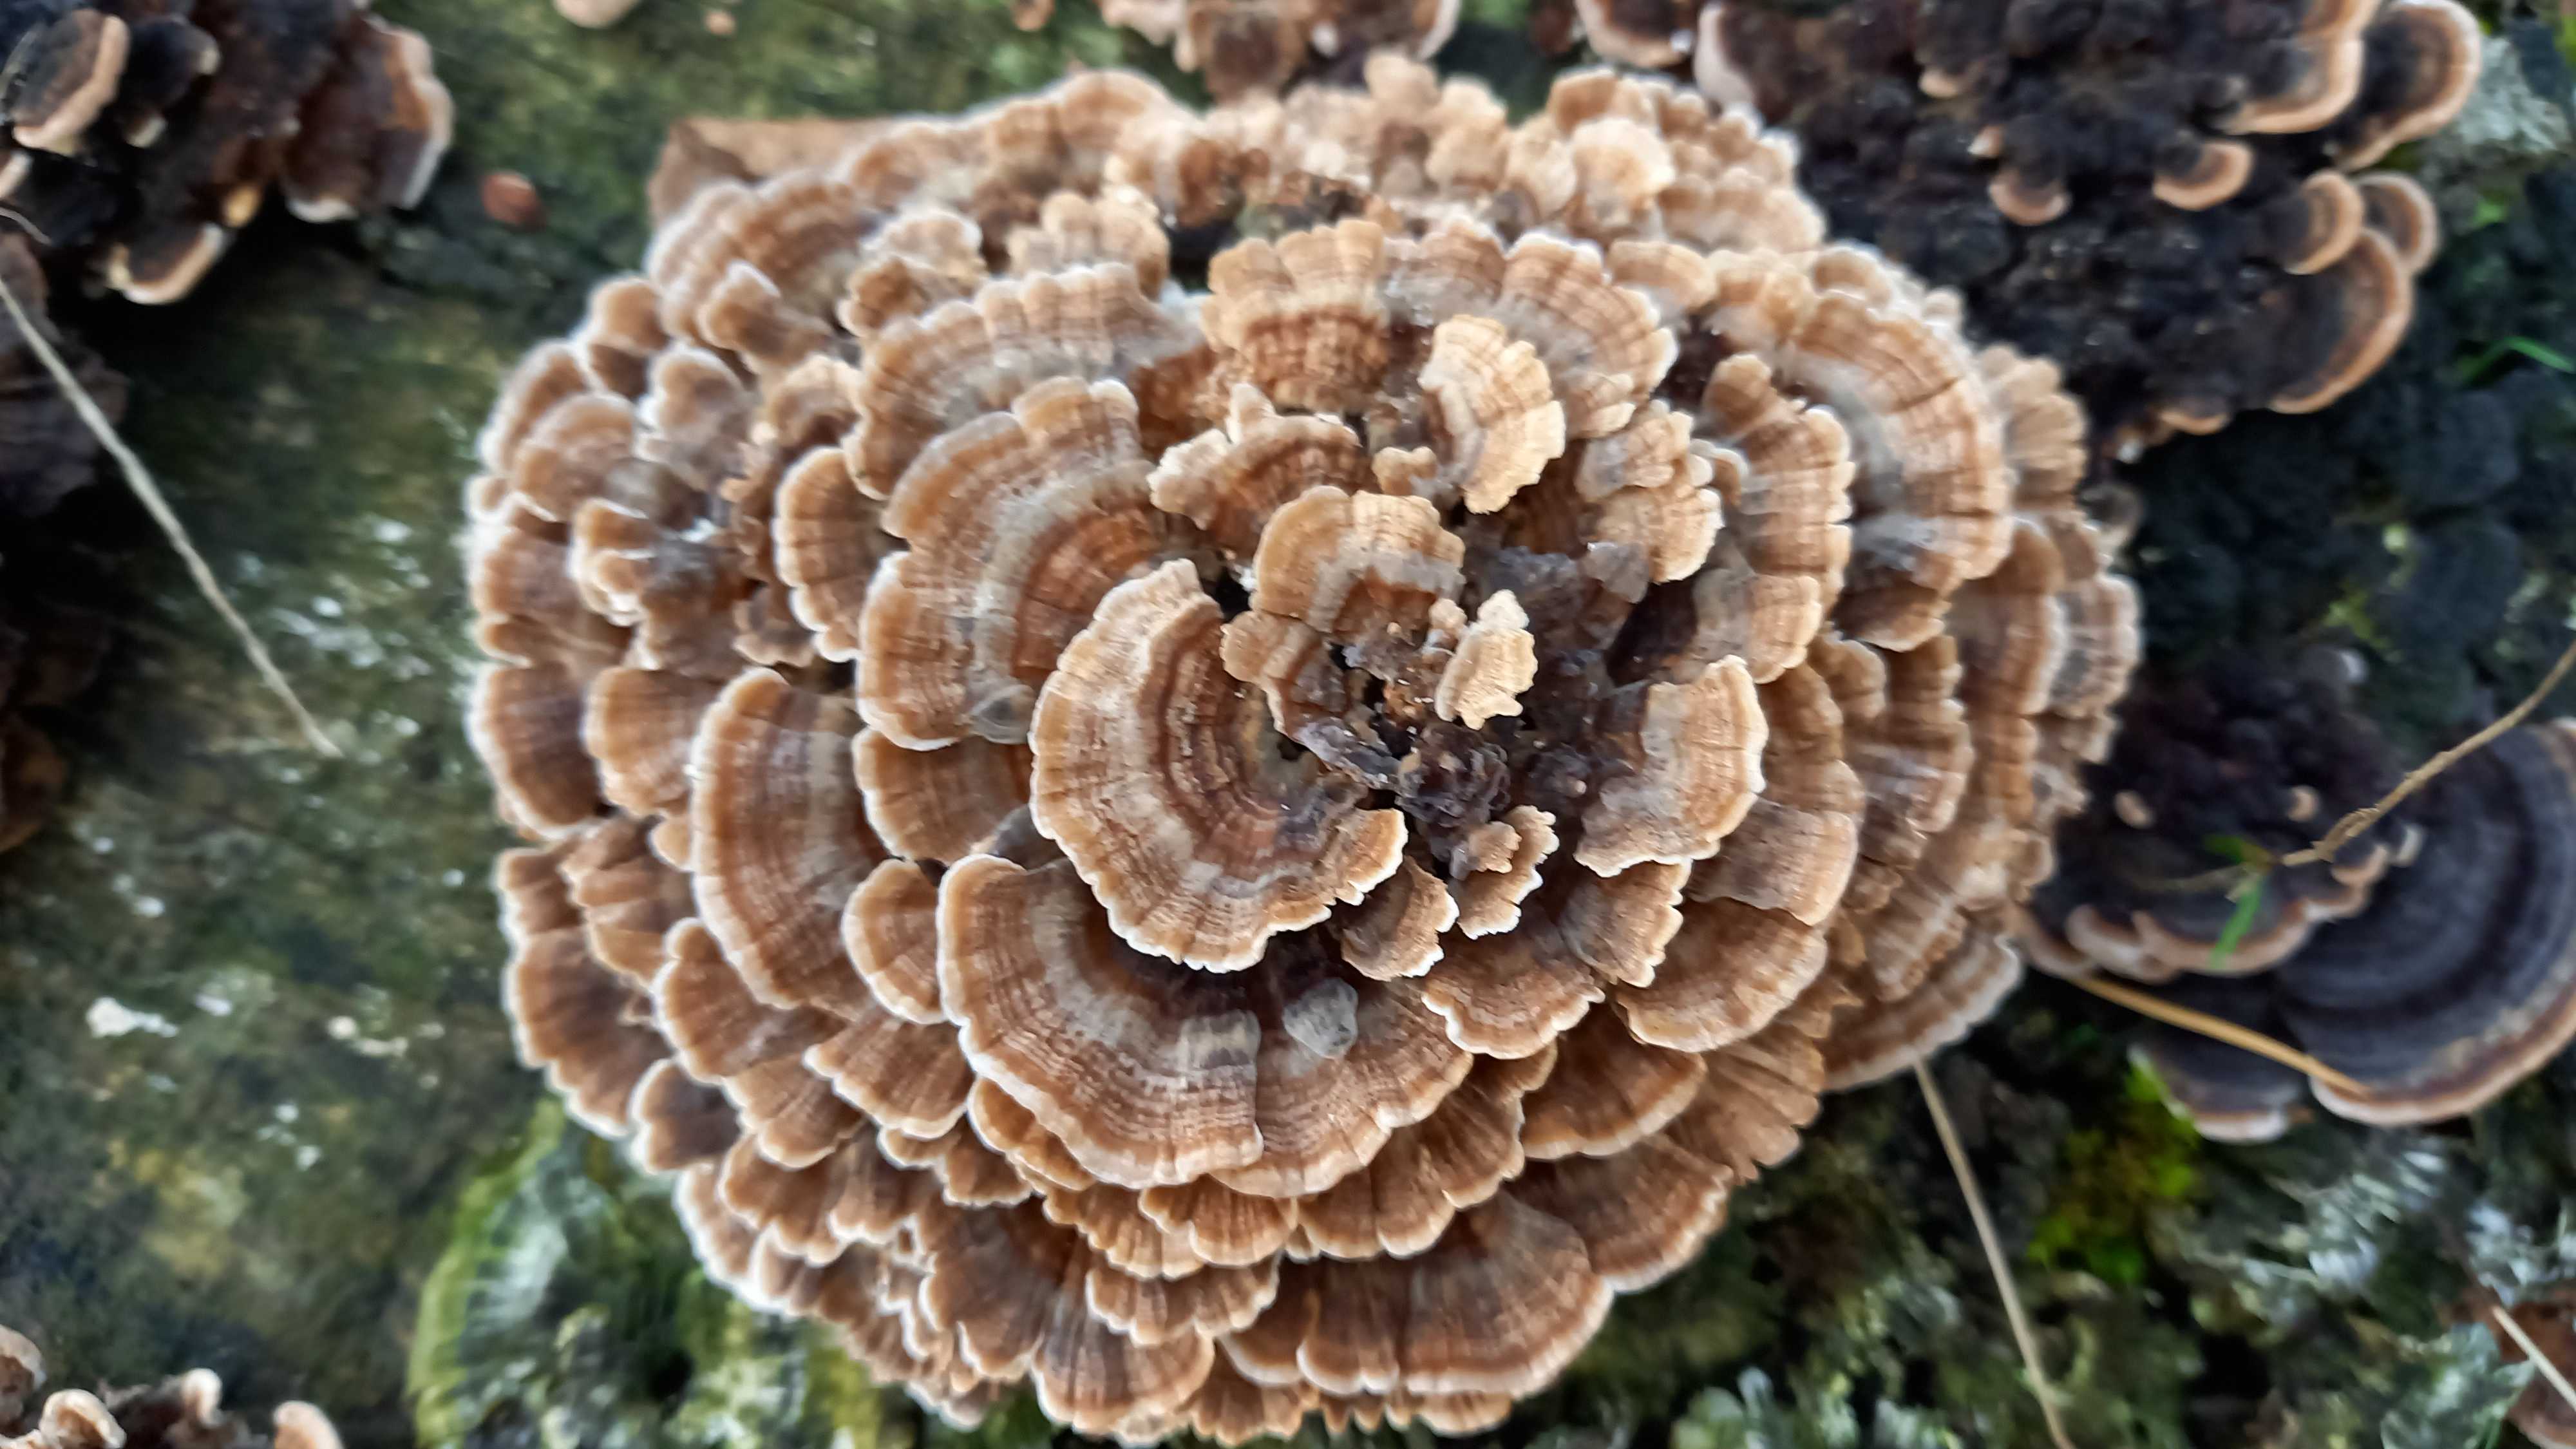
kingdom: Fungi
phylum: Basidiomycota
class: Agaricomycetes
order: Polyporales
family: Polyporaceae
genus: Trametes
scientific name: Trametes versicolor
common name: broget læderporesvamp
